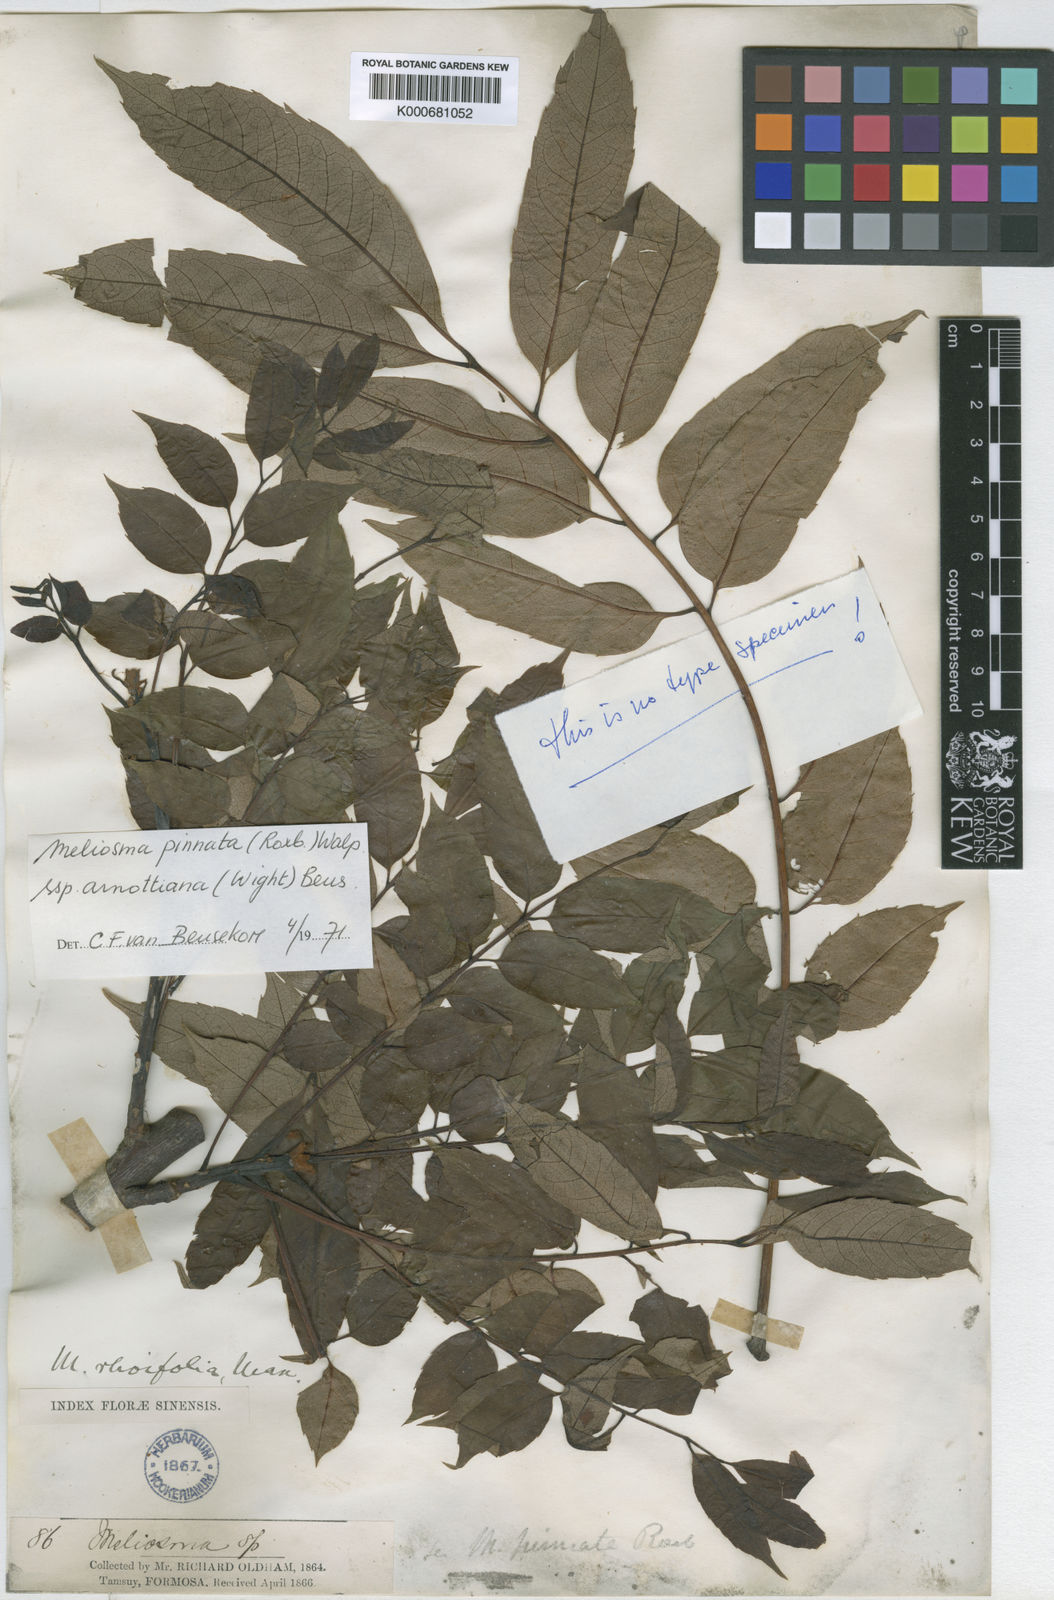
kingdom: Plantae
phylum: Tracheophyta
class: Magnoliopsida
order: Proteales
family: Sabiaceae
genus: Meliosma
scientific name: Meliosma pinnata
